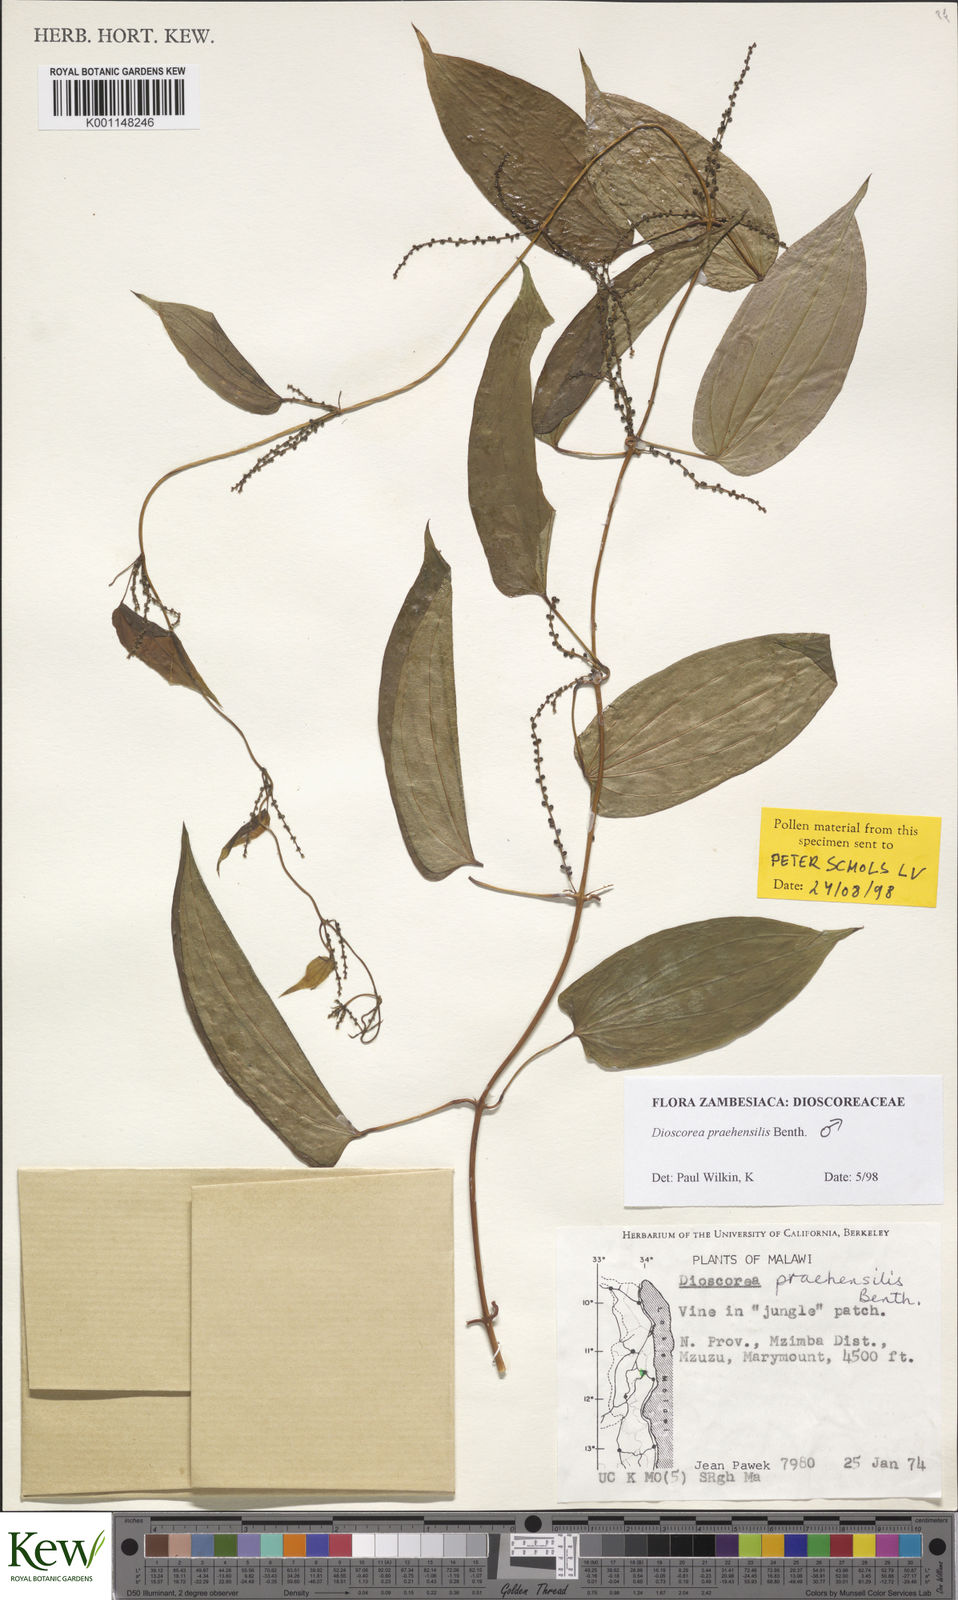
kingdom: Plantae
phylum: Tracheophyta
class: Liliopsida
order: Dioscoreales
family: Dioscoreaceae
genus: Dioscorea
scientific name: Dioscorea praehensilis
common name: Bush yam
